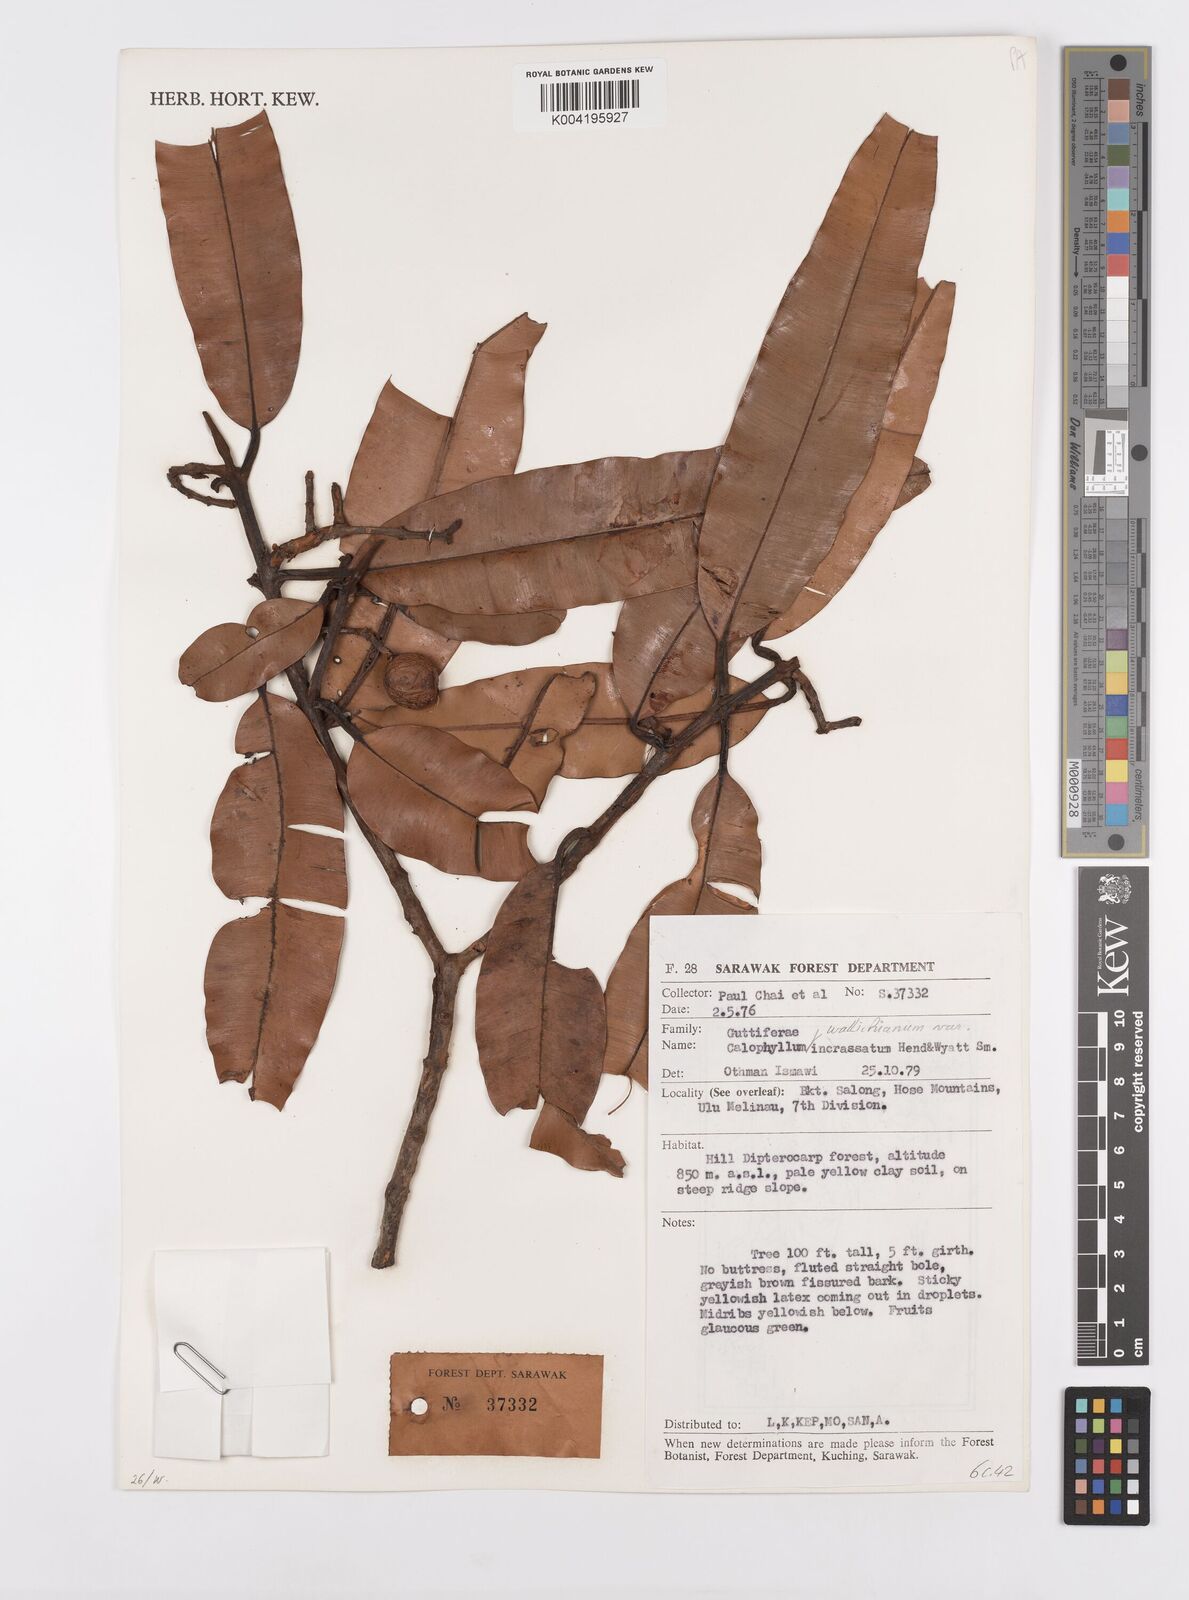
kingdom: Plantae
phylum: Tracheophyta
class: Magnoliopsida
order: Malpighiales
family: Calophyllaceae
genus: Calophyllum
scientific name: Calophyllum wallichiana
